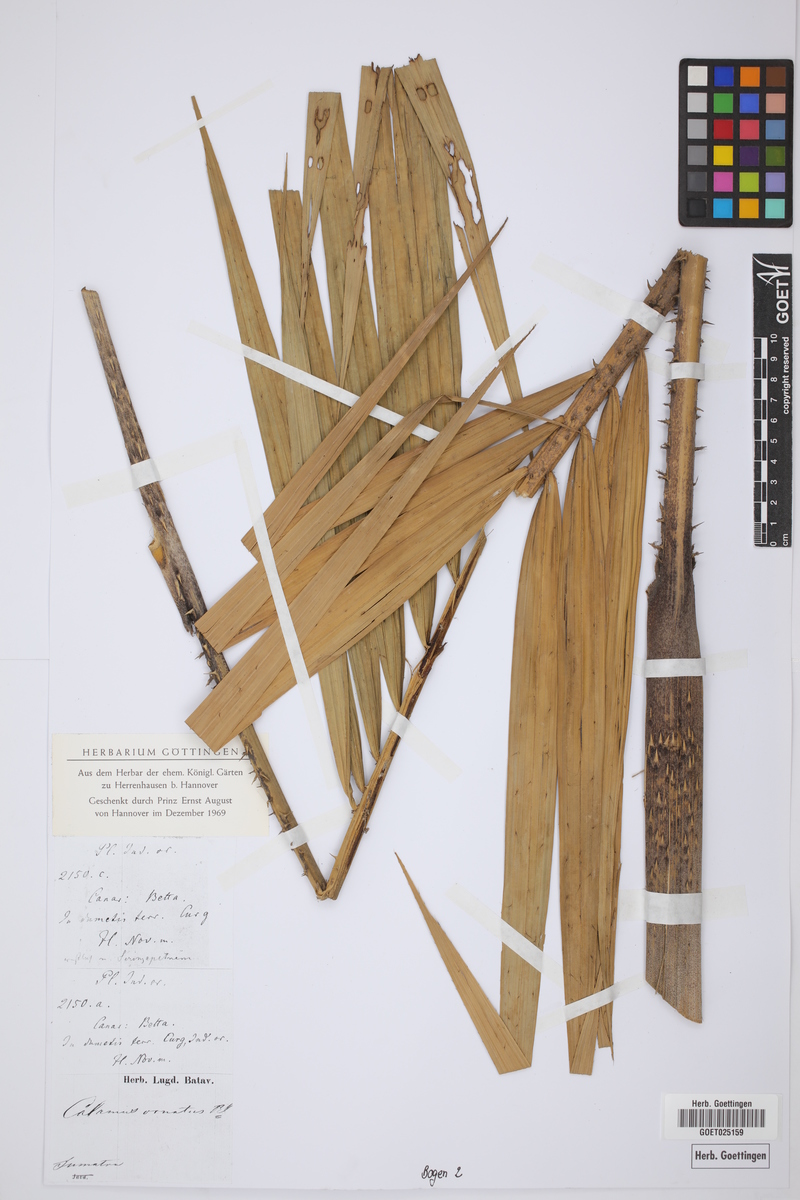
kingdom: Plantae
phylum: Tracheophyta
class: Liliopsida
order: Arecales
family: Arecaceae
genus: Calamus
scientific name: Calamus ornatus
